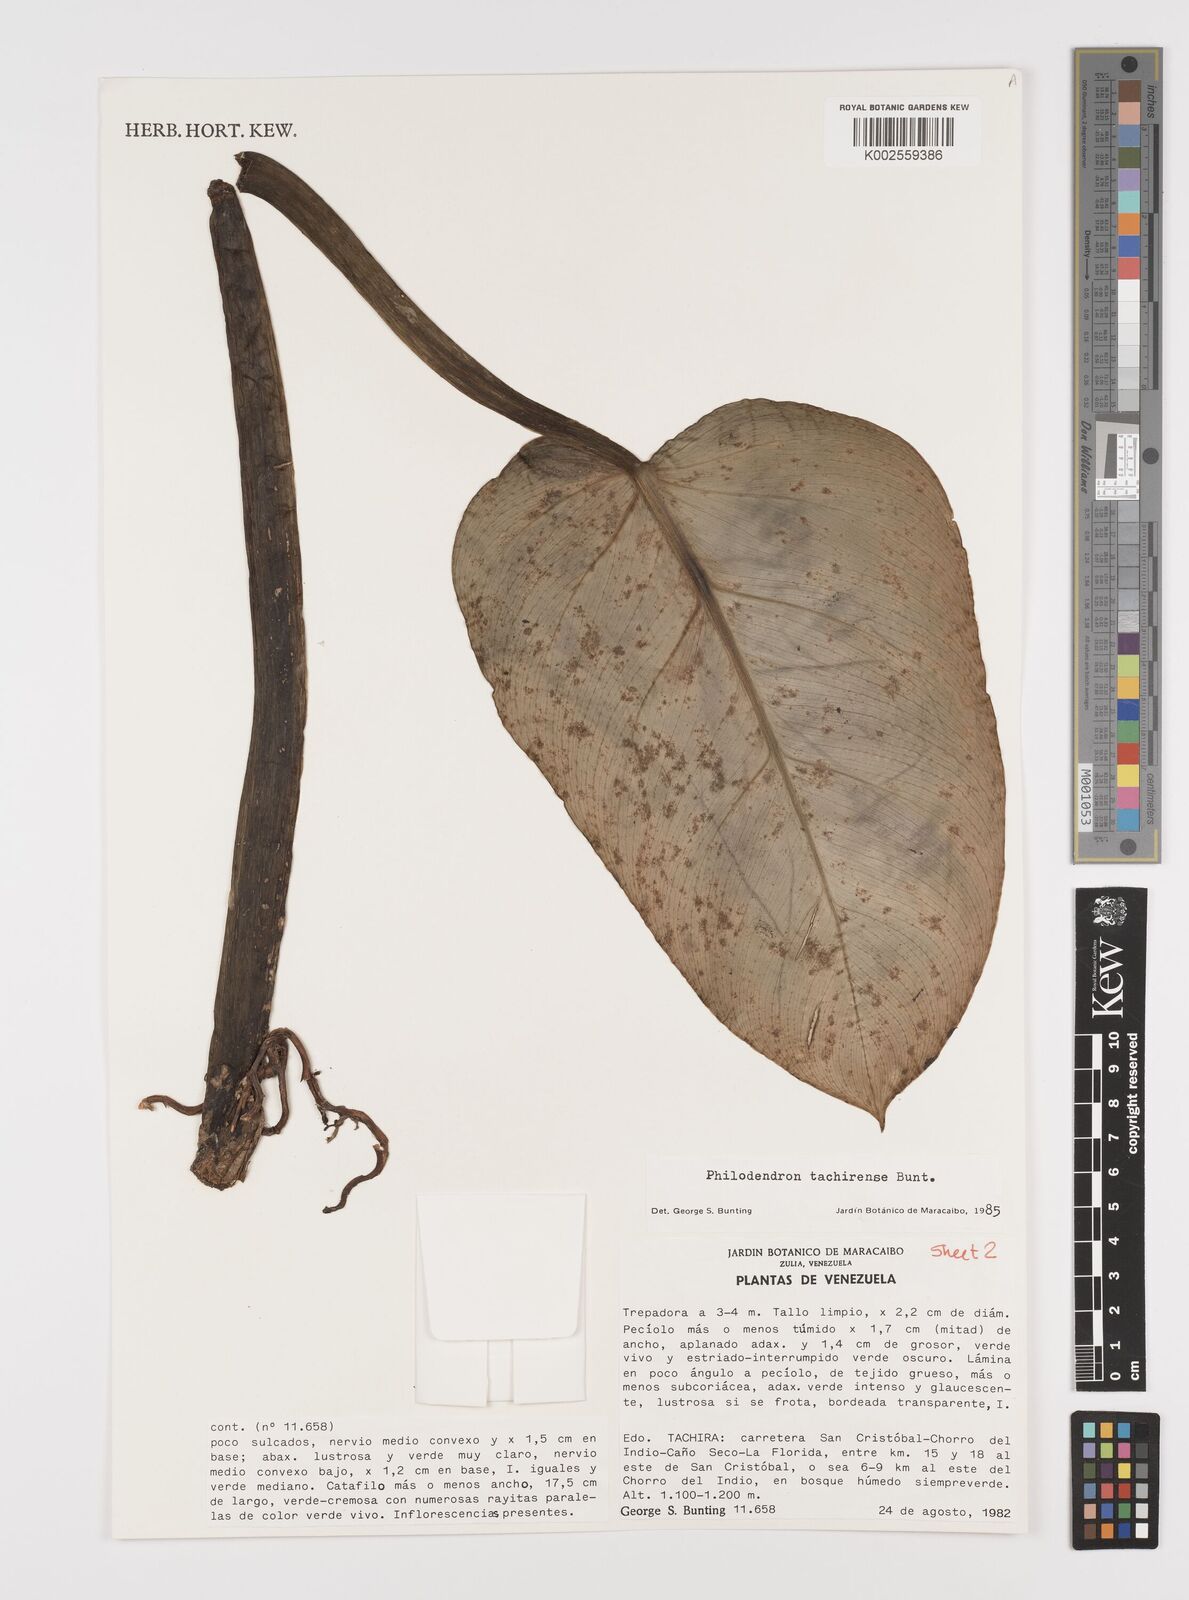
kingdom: Plantae
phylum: Tracheophyta
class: Liliopsida
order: Alismatales
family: Araceae
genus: Philodendron
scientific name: Philodendron tachirense
